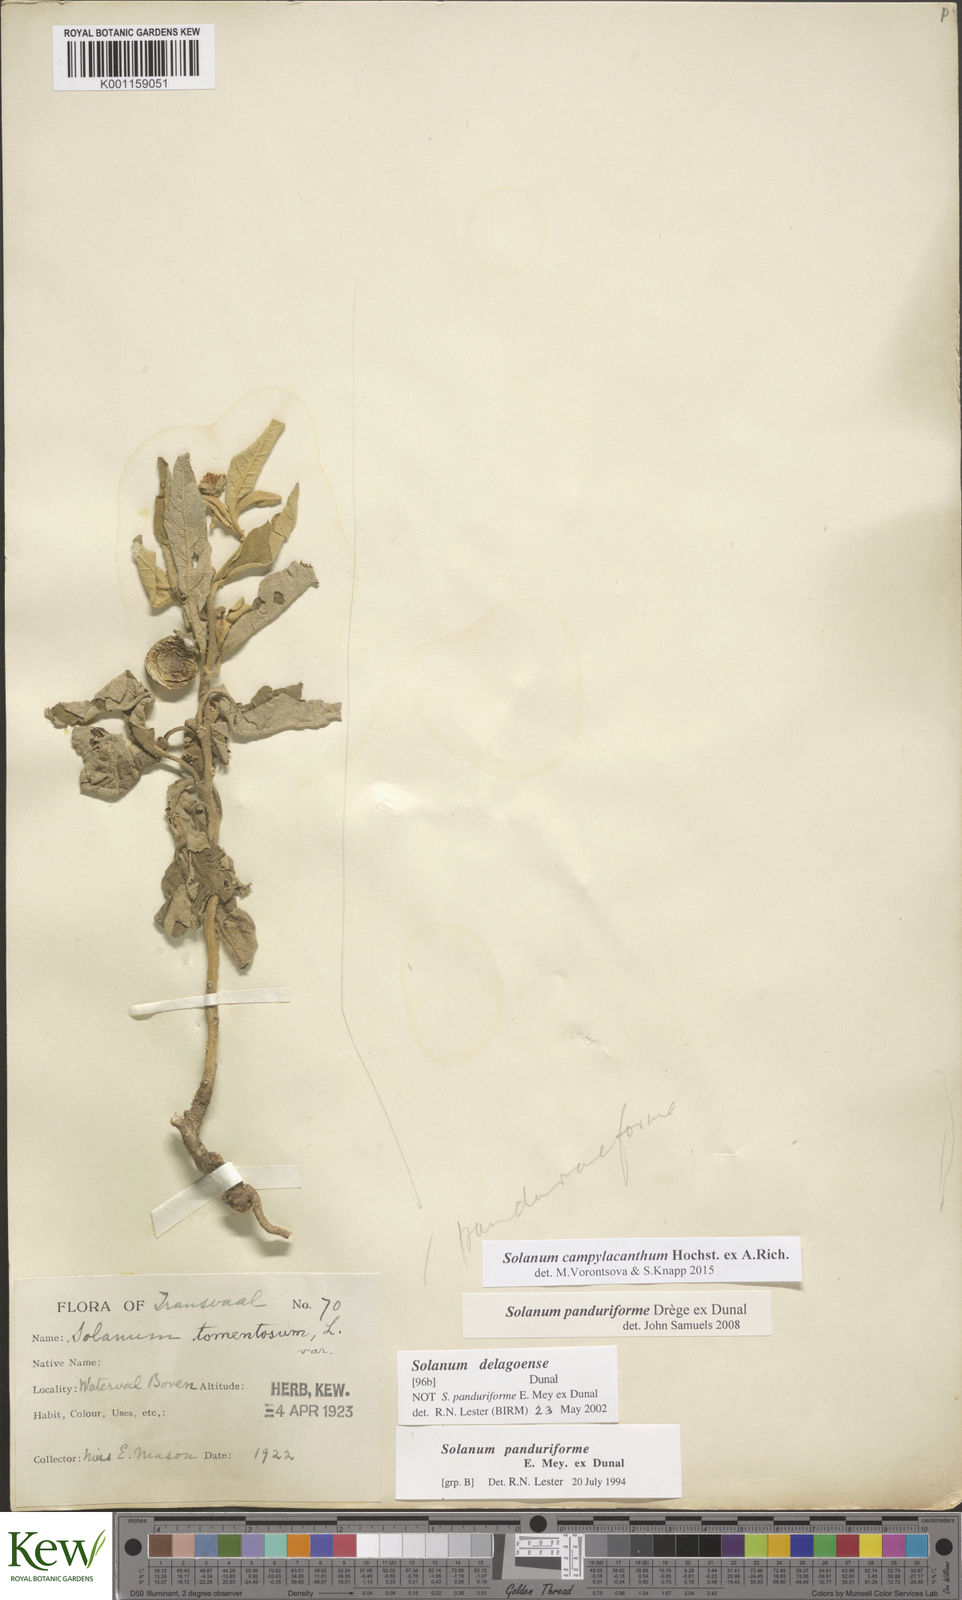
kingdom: Plantae
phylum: Tracheophyta
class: Magnoliopsida
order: Solanales
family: Solanaceae
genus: Solanum
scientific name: Solanum campylacanthum
